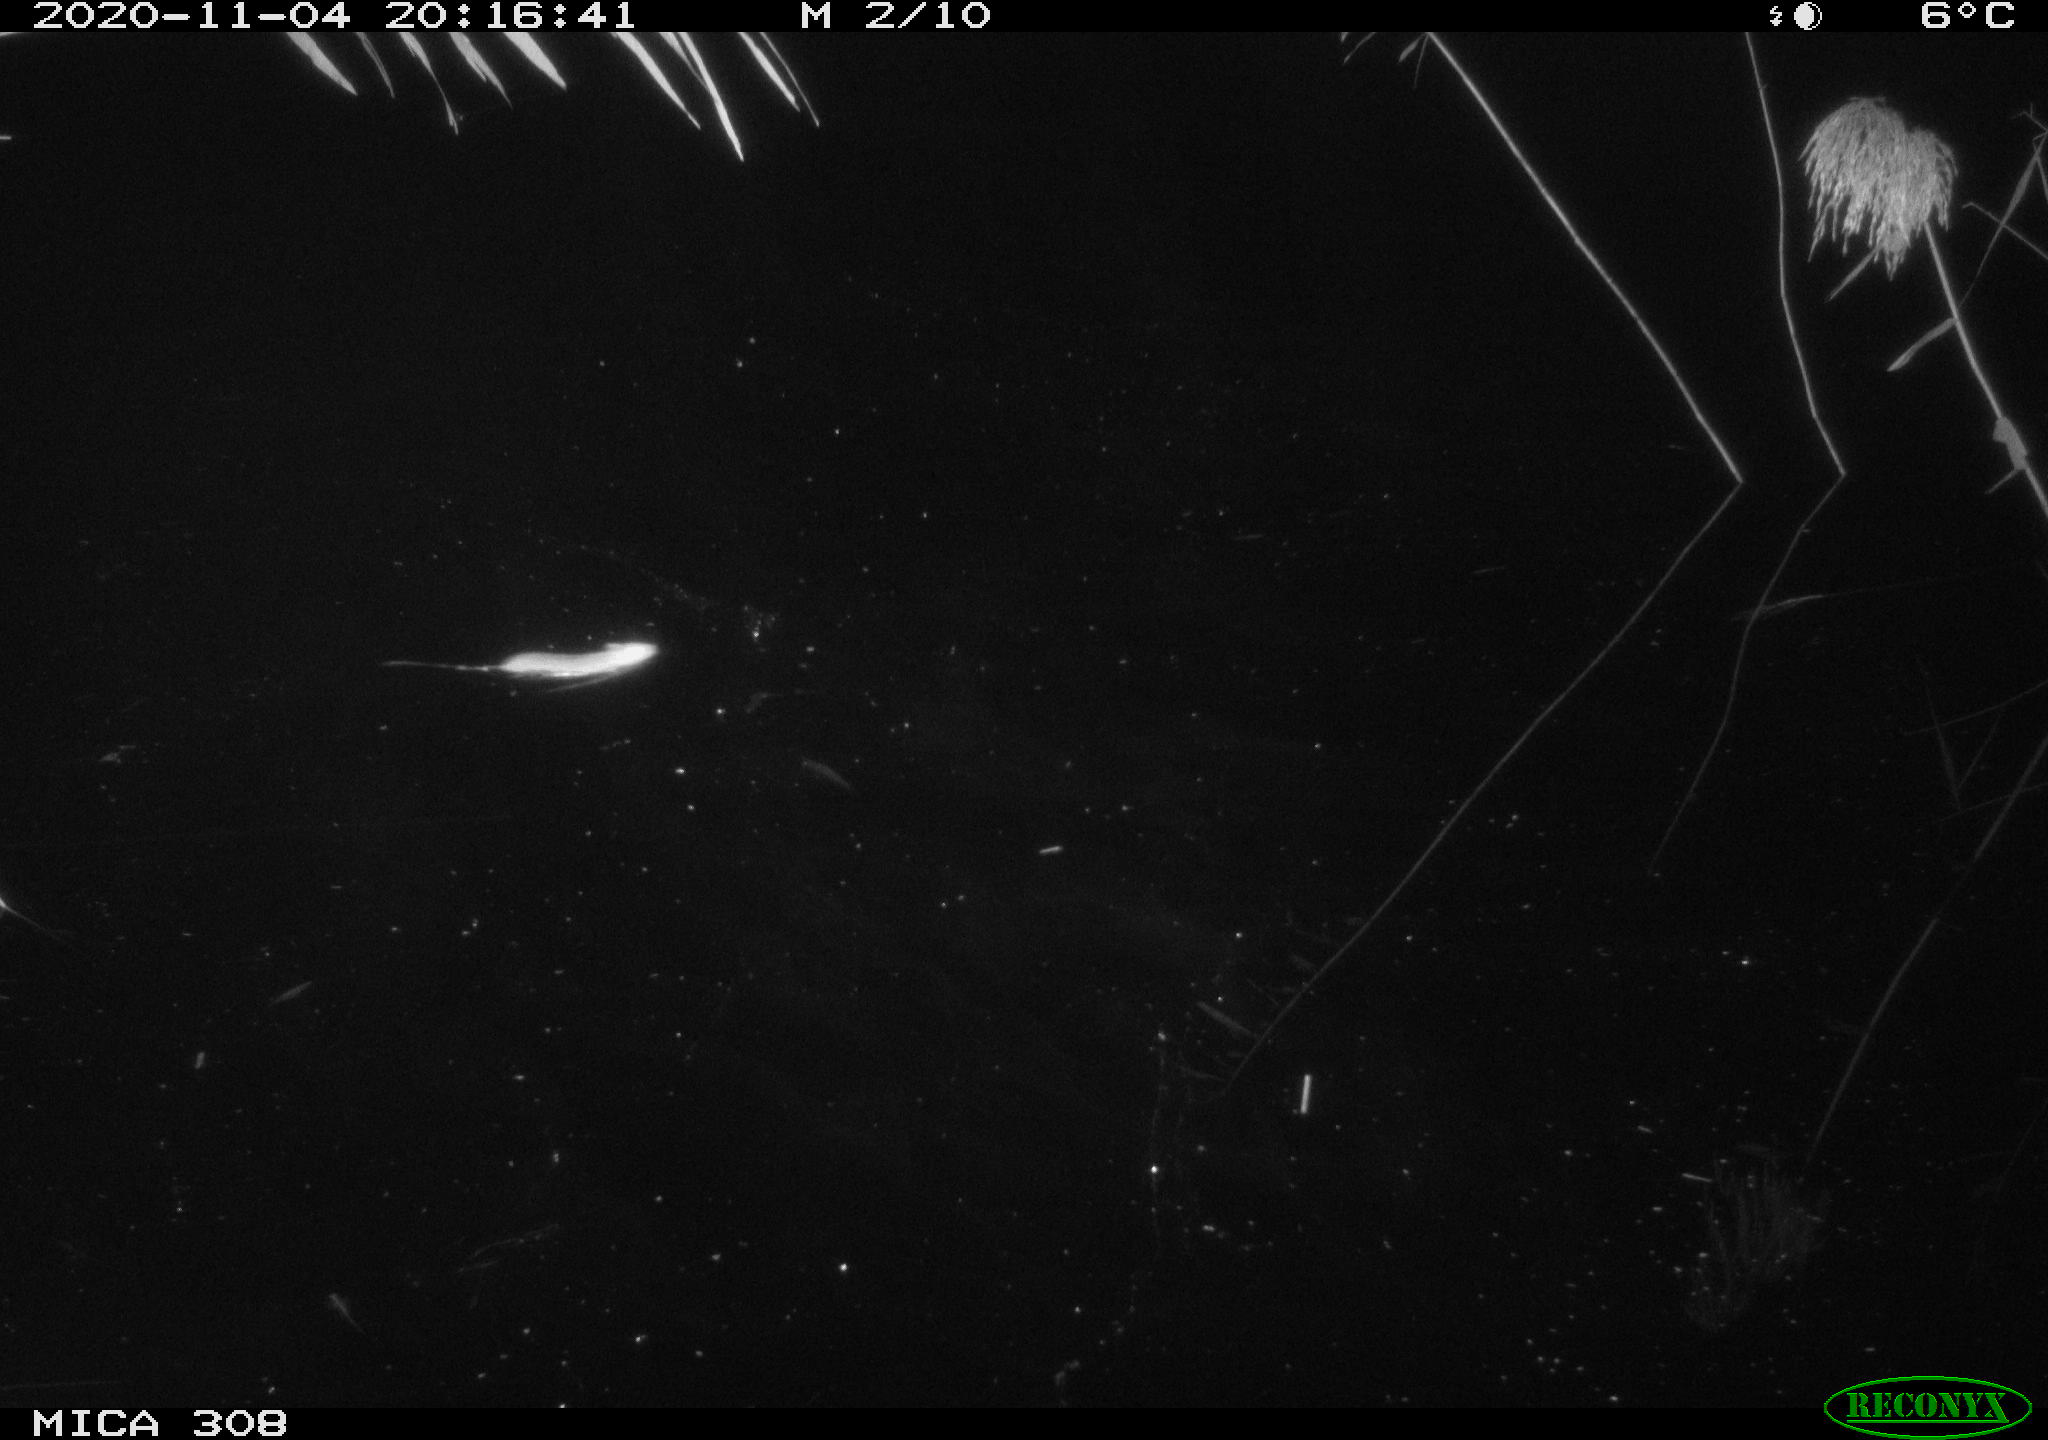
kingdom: Animalia
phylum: Chordata
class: Mammalia
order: Rodentia
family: Muridae
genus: Rattus
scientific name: Rattus norvegicus
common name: Brown rat
